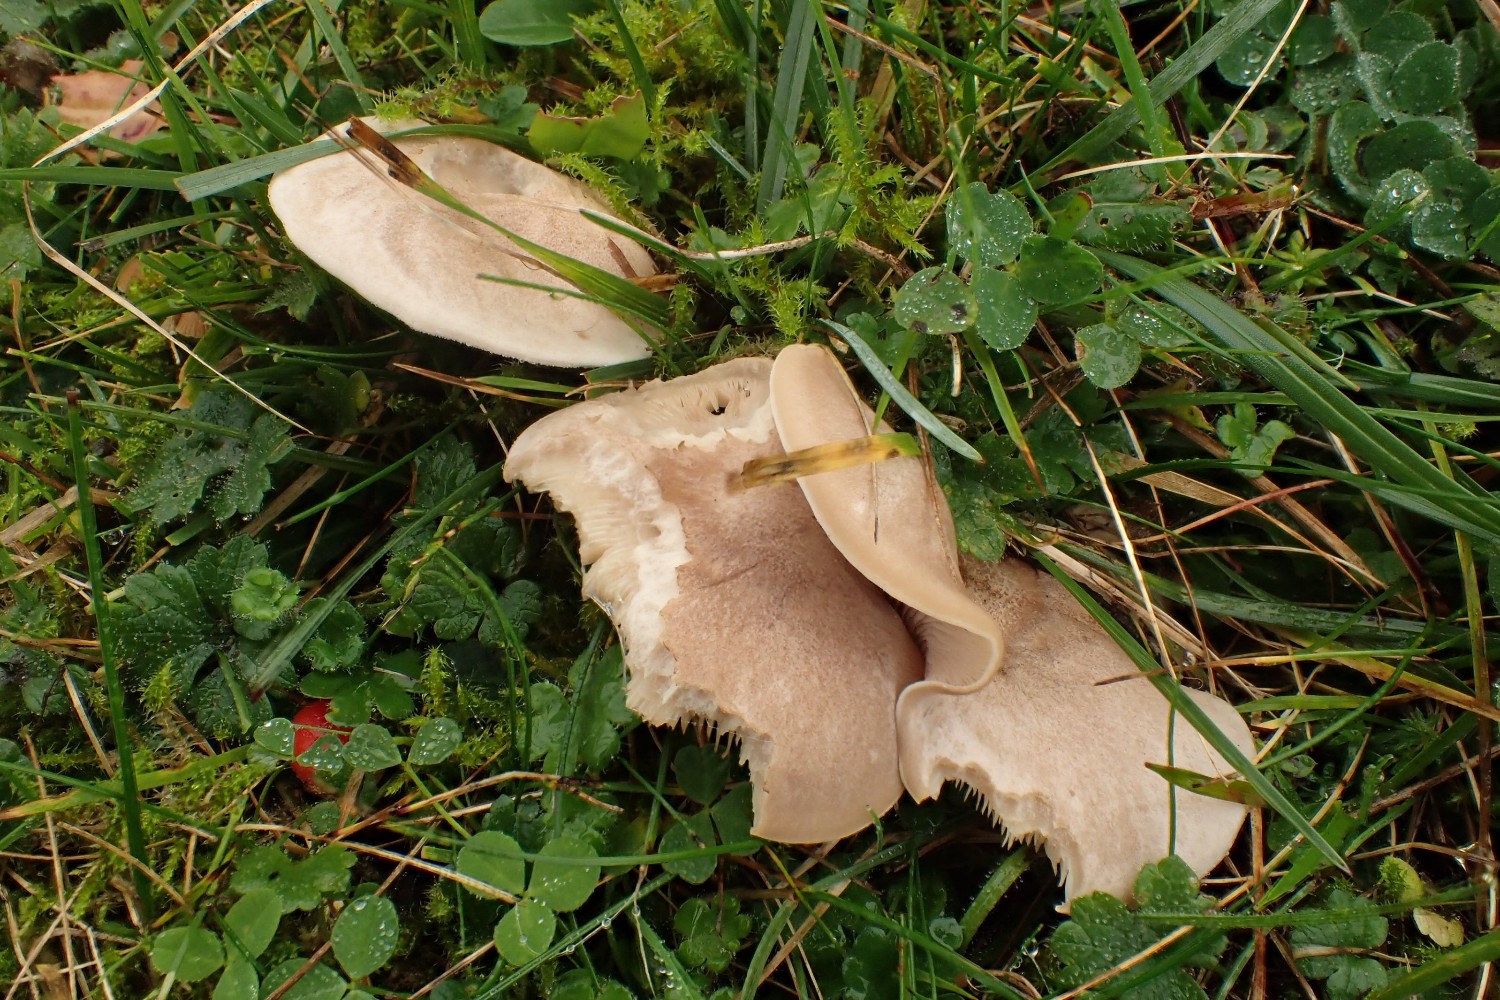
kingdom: Fungi
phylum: Basidiomycota
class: Agaricomycetes
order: Agaricales
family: Tricholomataceae
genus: Lepista
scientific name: Lepista panaeolus
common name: marmoreret hekseringshat
